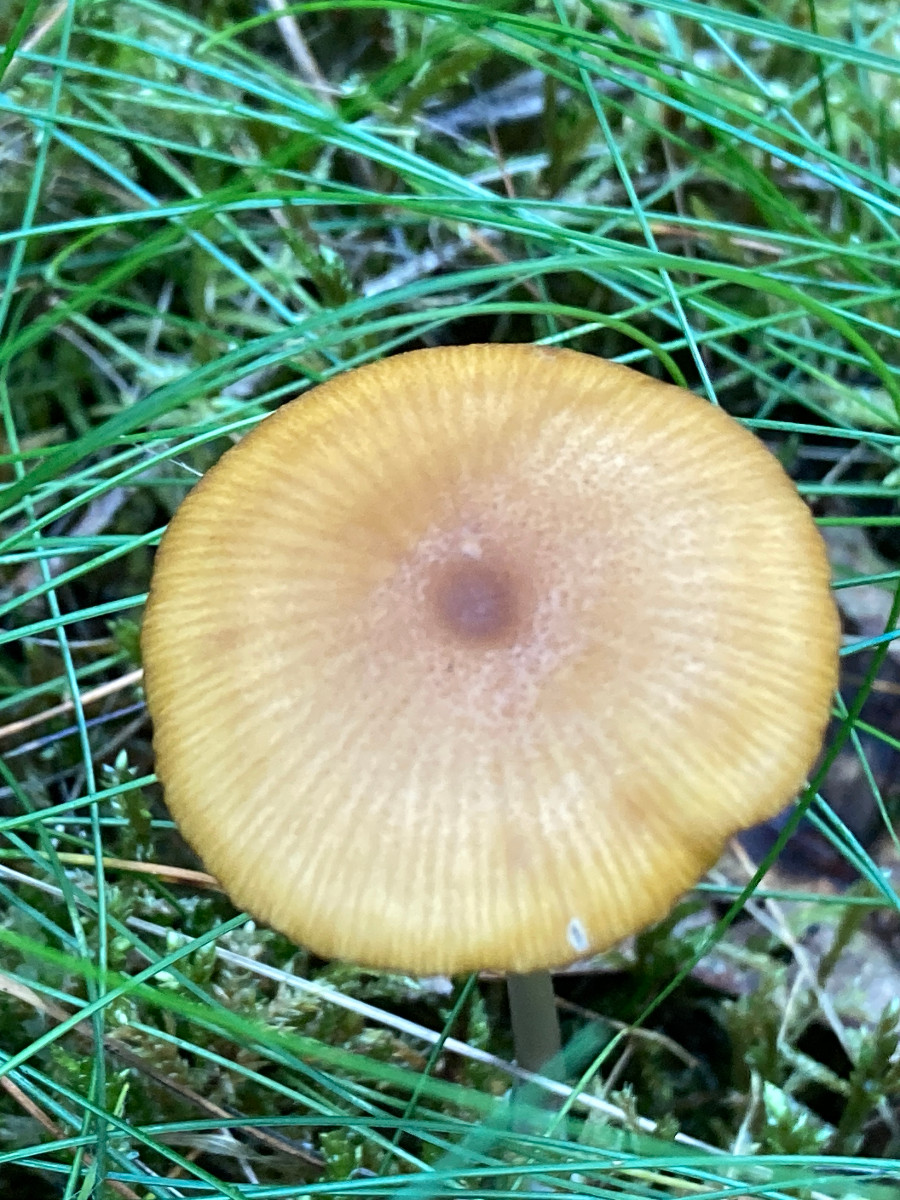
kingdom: Fungi
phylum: Basidiomycota
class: Agaricomycetes
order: Agaricales
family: Entolomataceae
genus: Entoloma
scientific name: Entoloma formosum
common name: brungul rødblad
